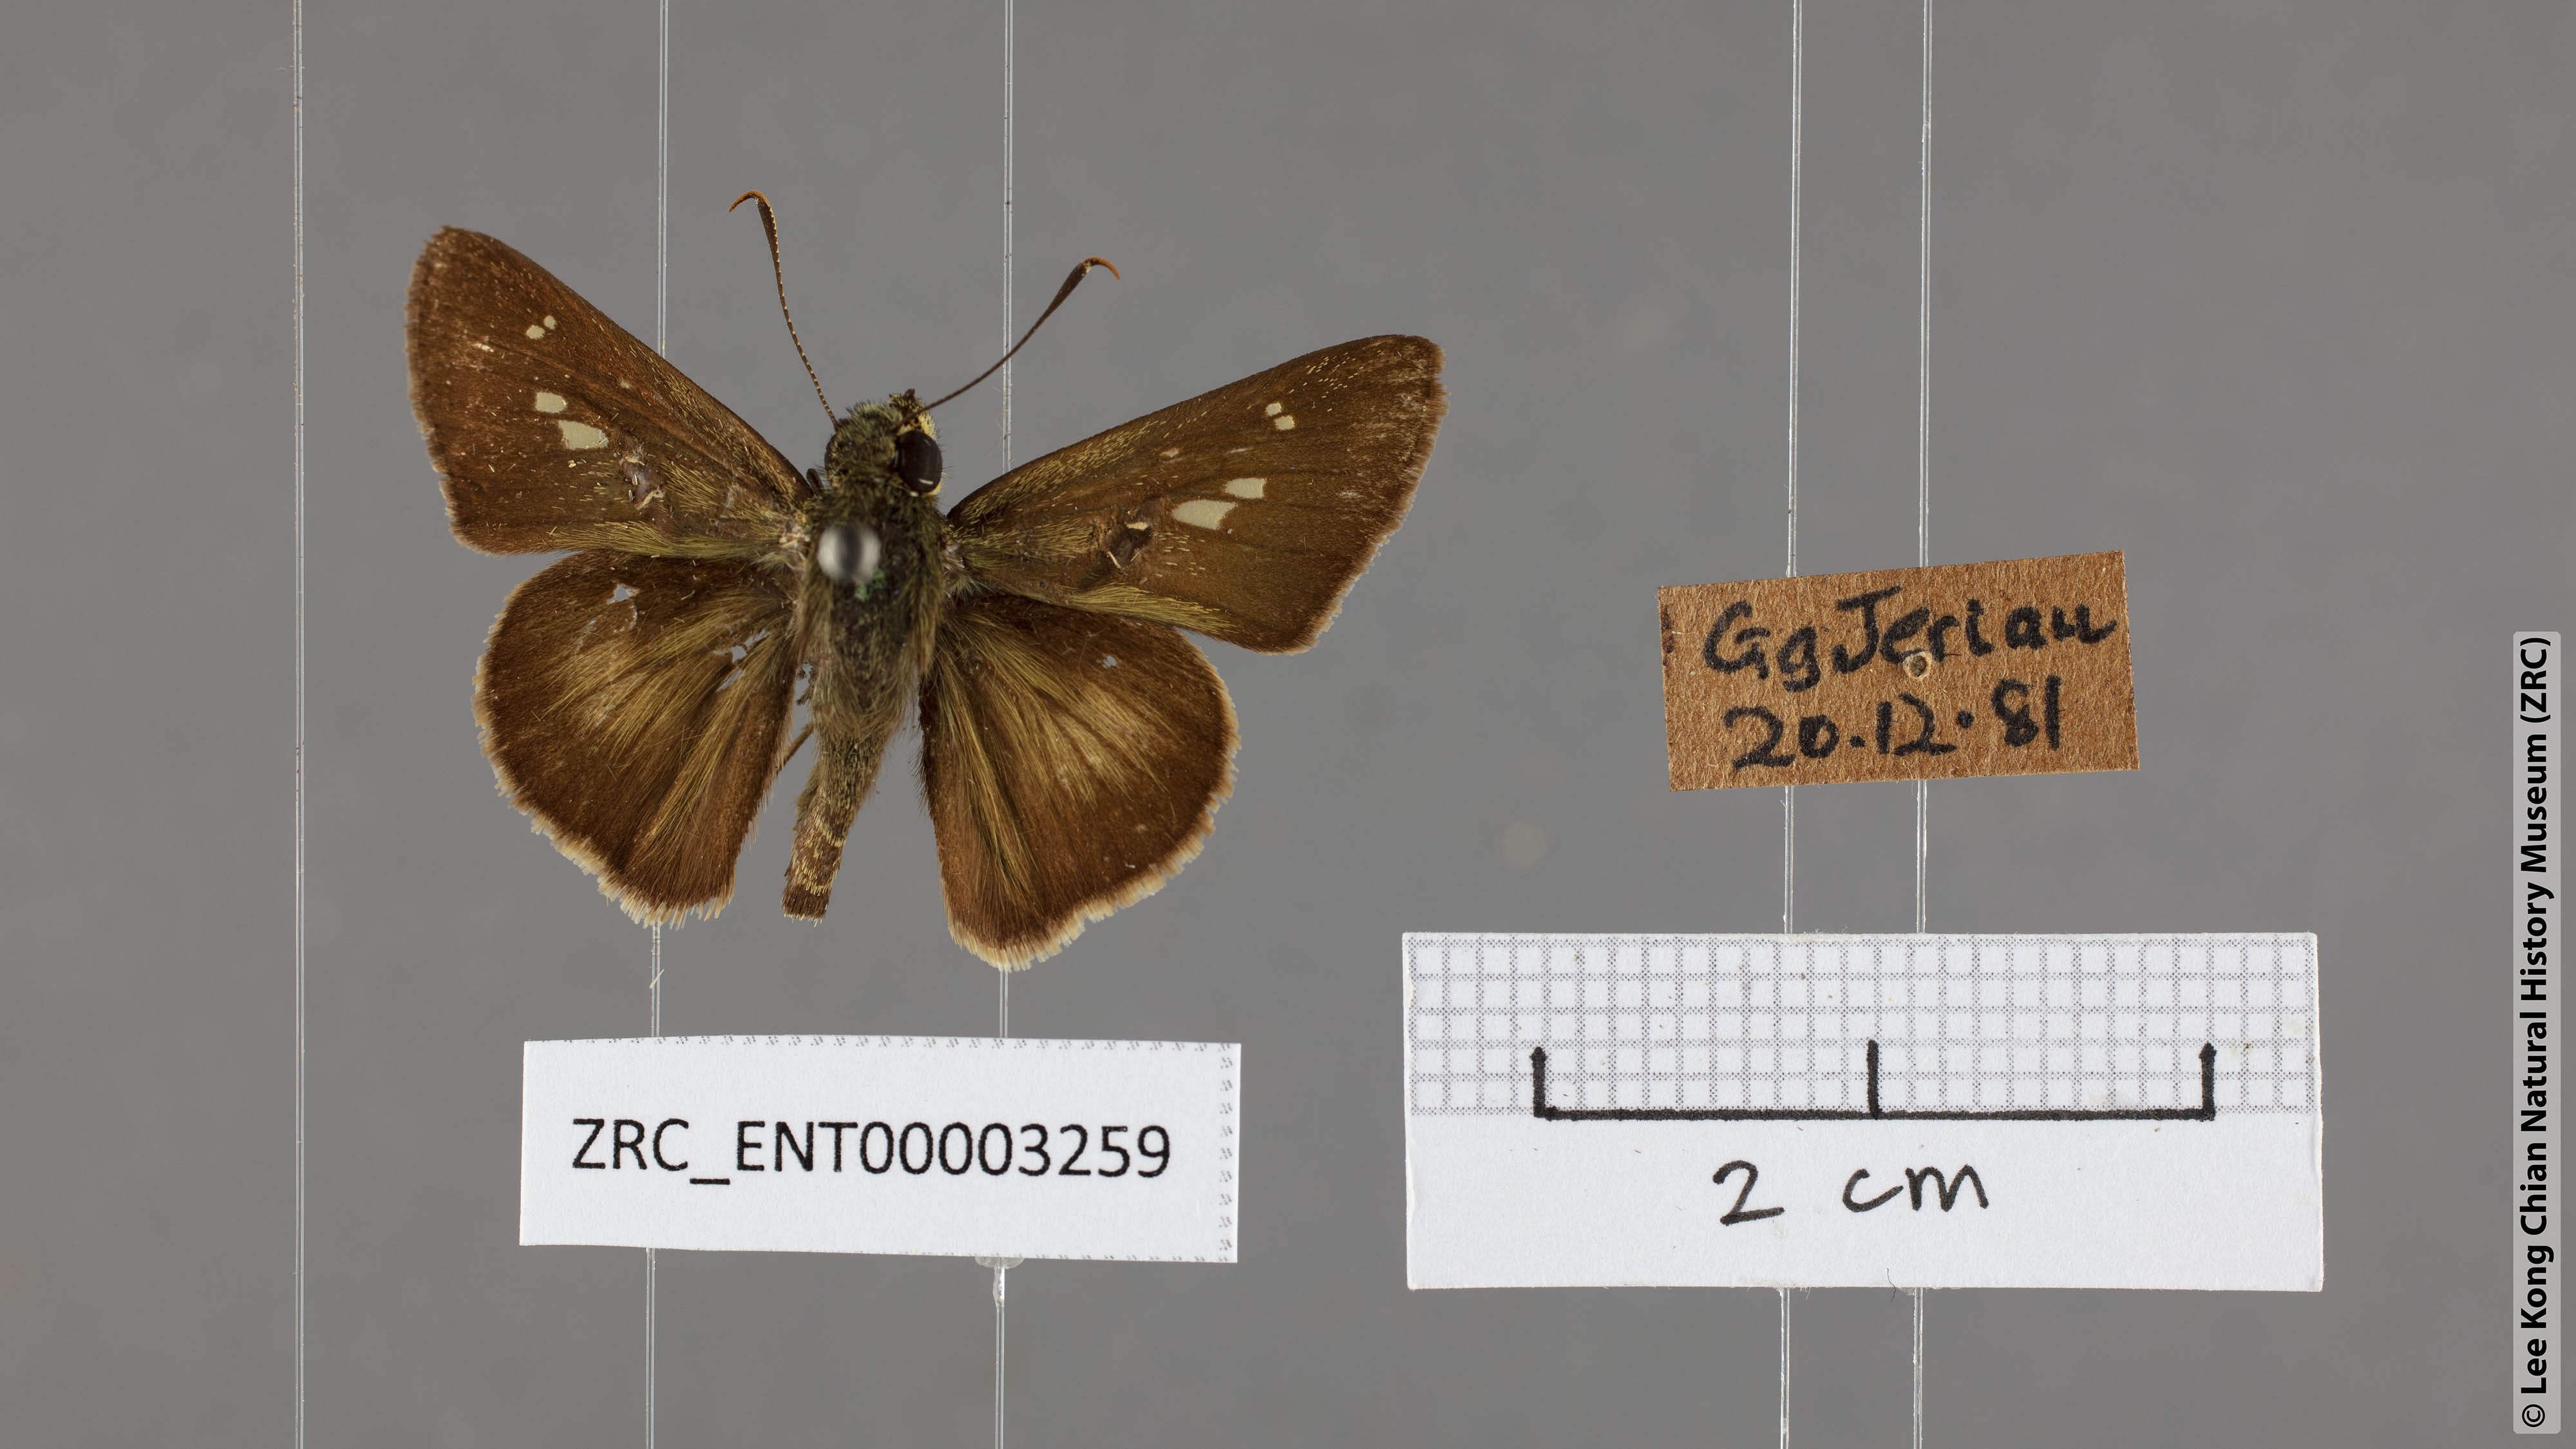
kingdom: Animalia
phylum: Arthropoda
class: Insecta
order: Lepidoptera
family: Hesperiidae
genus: Halpe
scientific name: Halpe zema
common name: Dark banded ace
